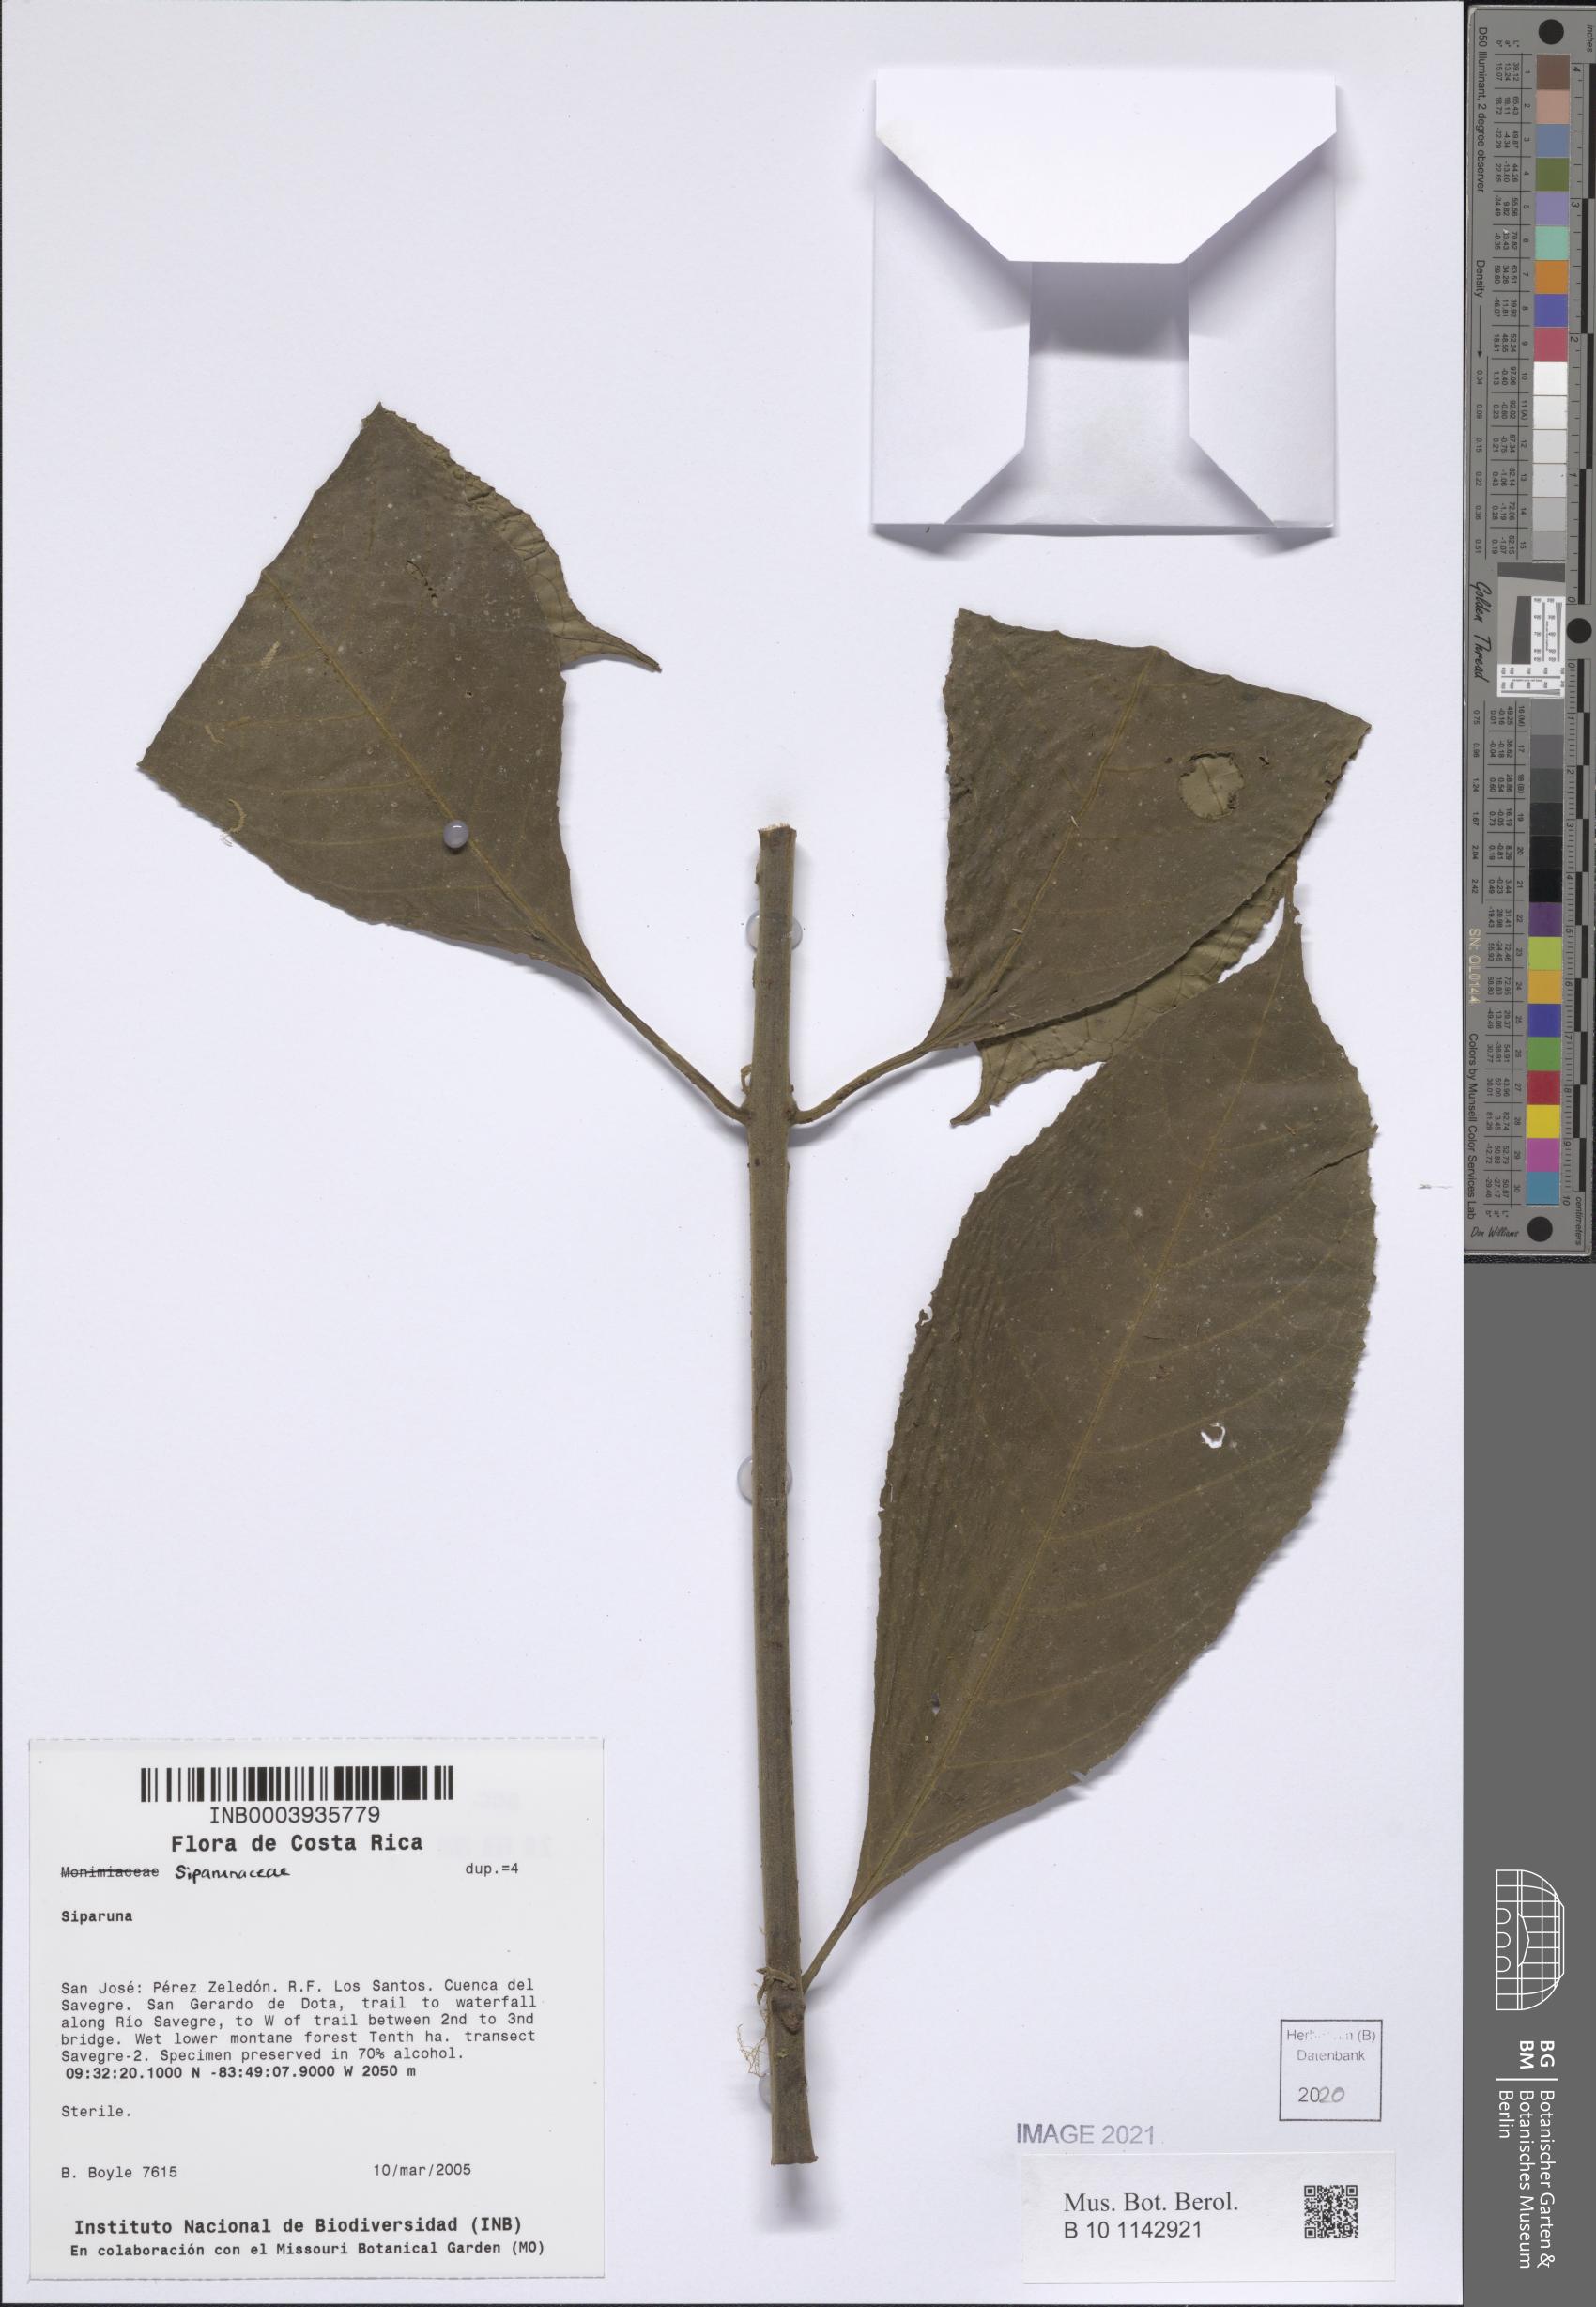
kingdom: Plantae
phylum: Tracheophyta
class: Magnoliopsida
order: Laurales
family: Siparunaceae
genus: Siparuna
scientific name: Siparuna
